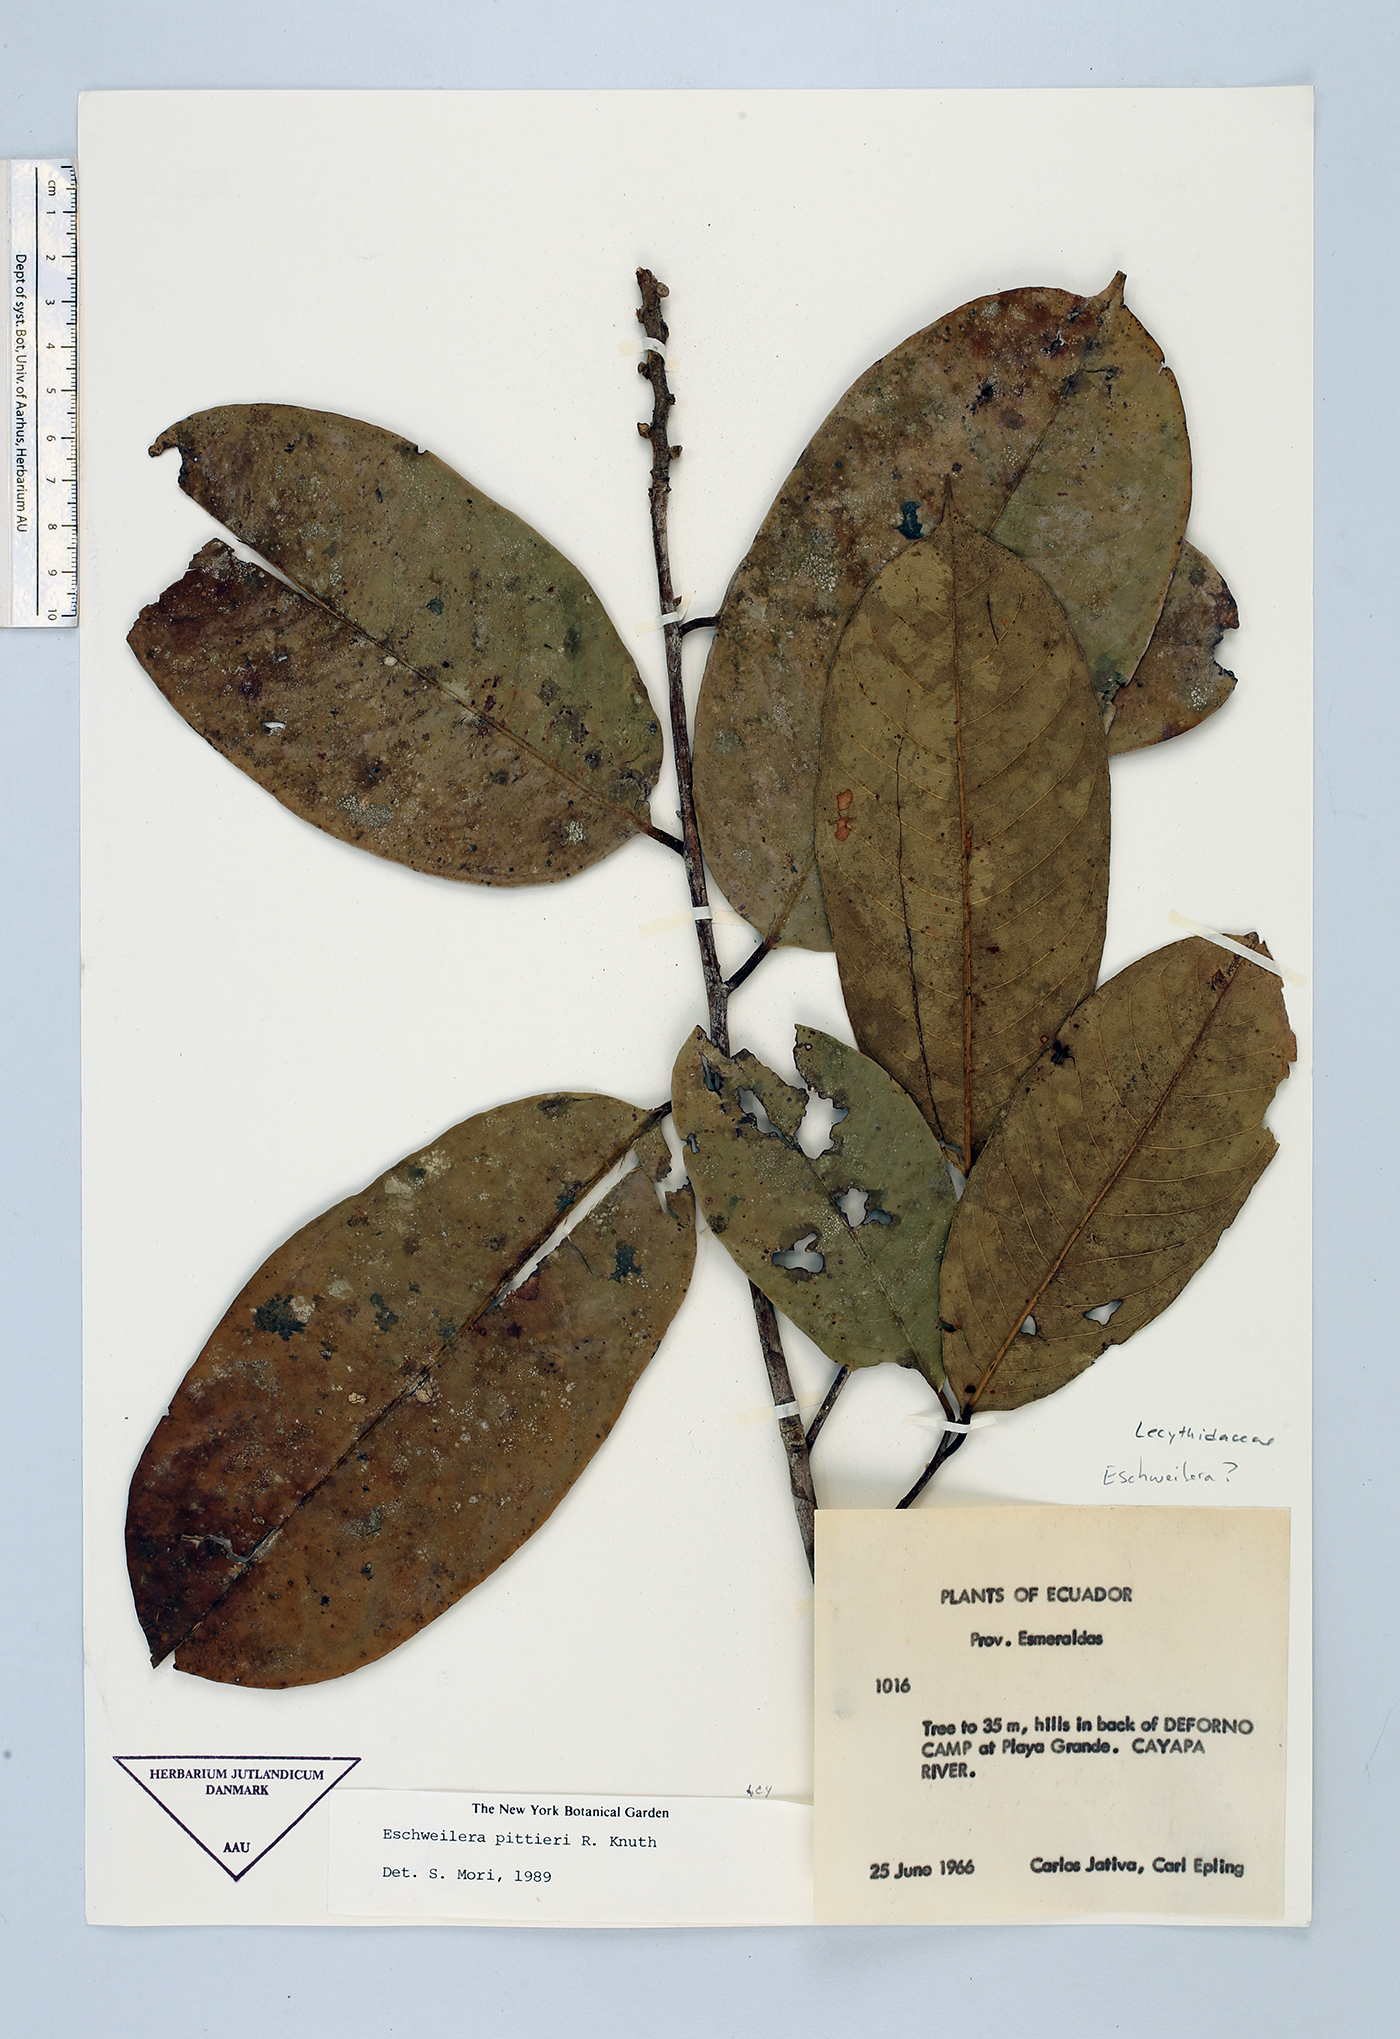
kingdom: Plantae
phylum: Tracheophyta
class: Magnoliopsida
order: Ericales
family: Lecythidaceae
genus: Eschweilera
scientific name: Eschweilera reversa
